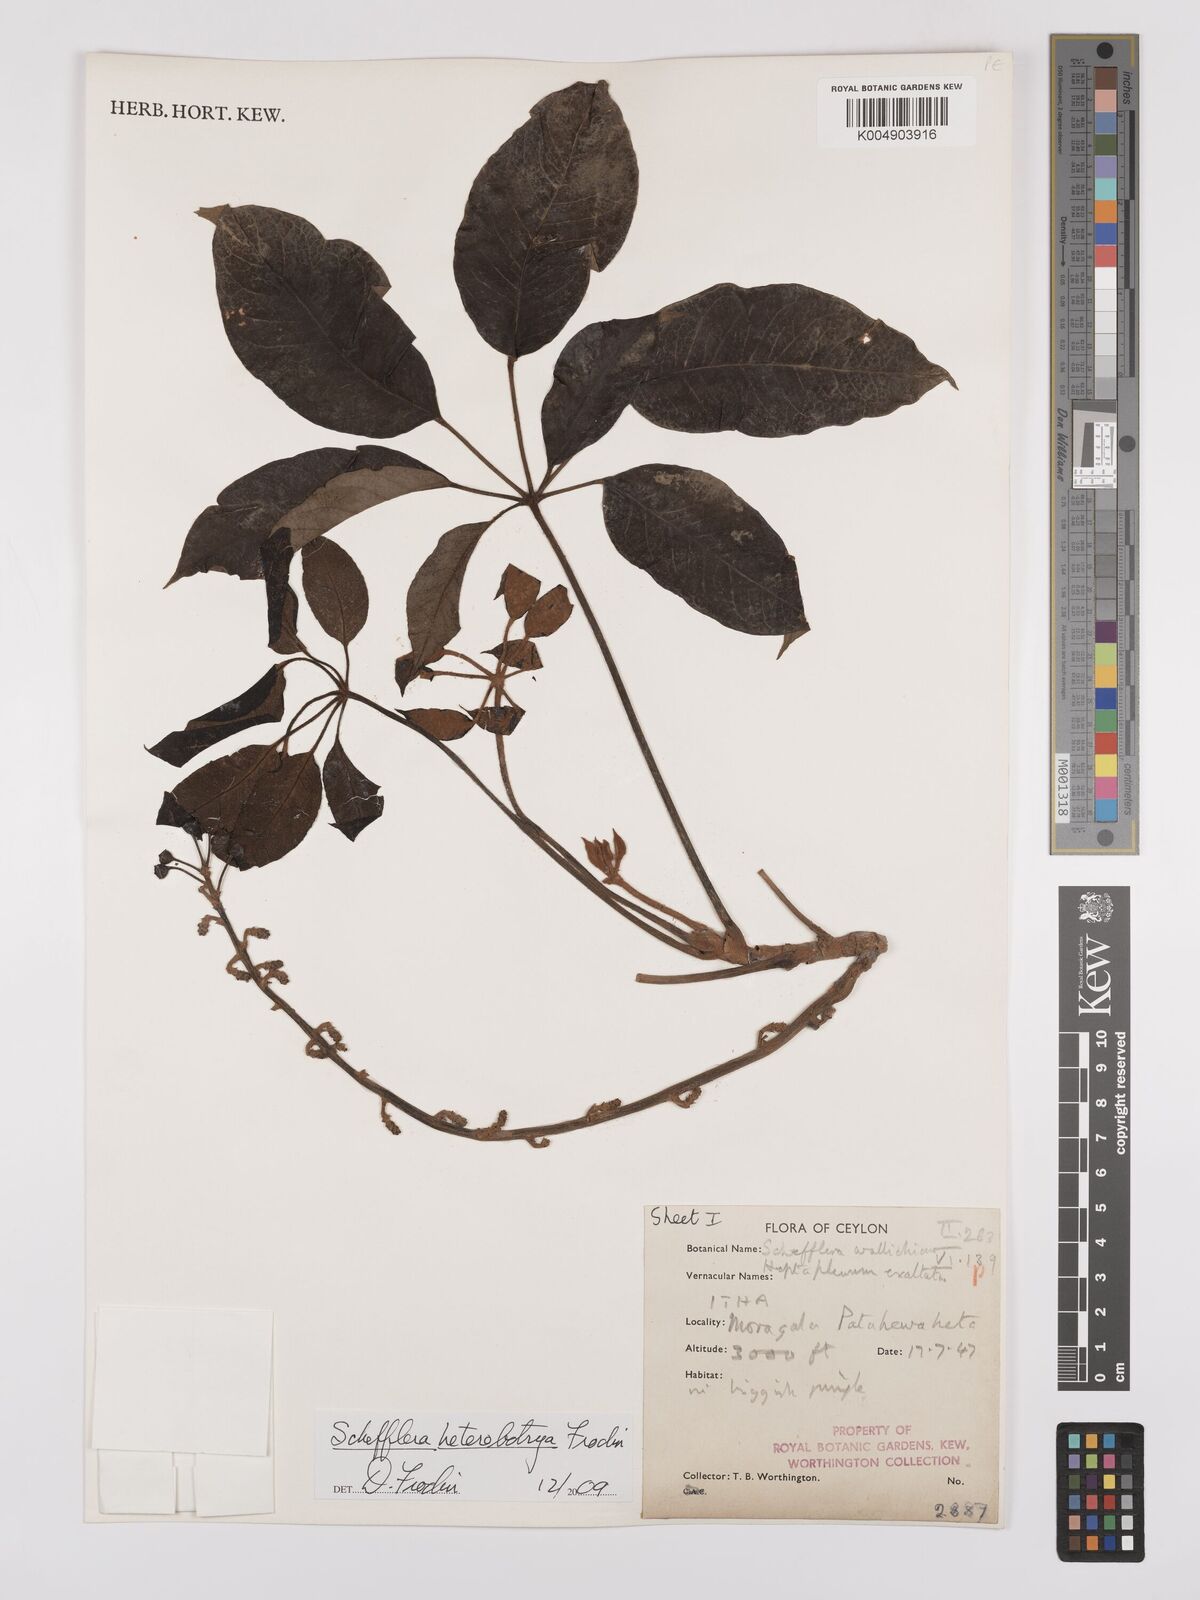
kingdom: Plantae
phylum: Tracheophyta
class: Magnoliopsida
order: Apiales
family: Araliaceae
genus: Heptapleurum
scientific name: Heptapleurum
